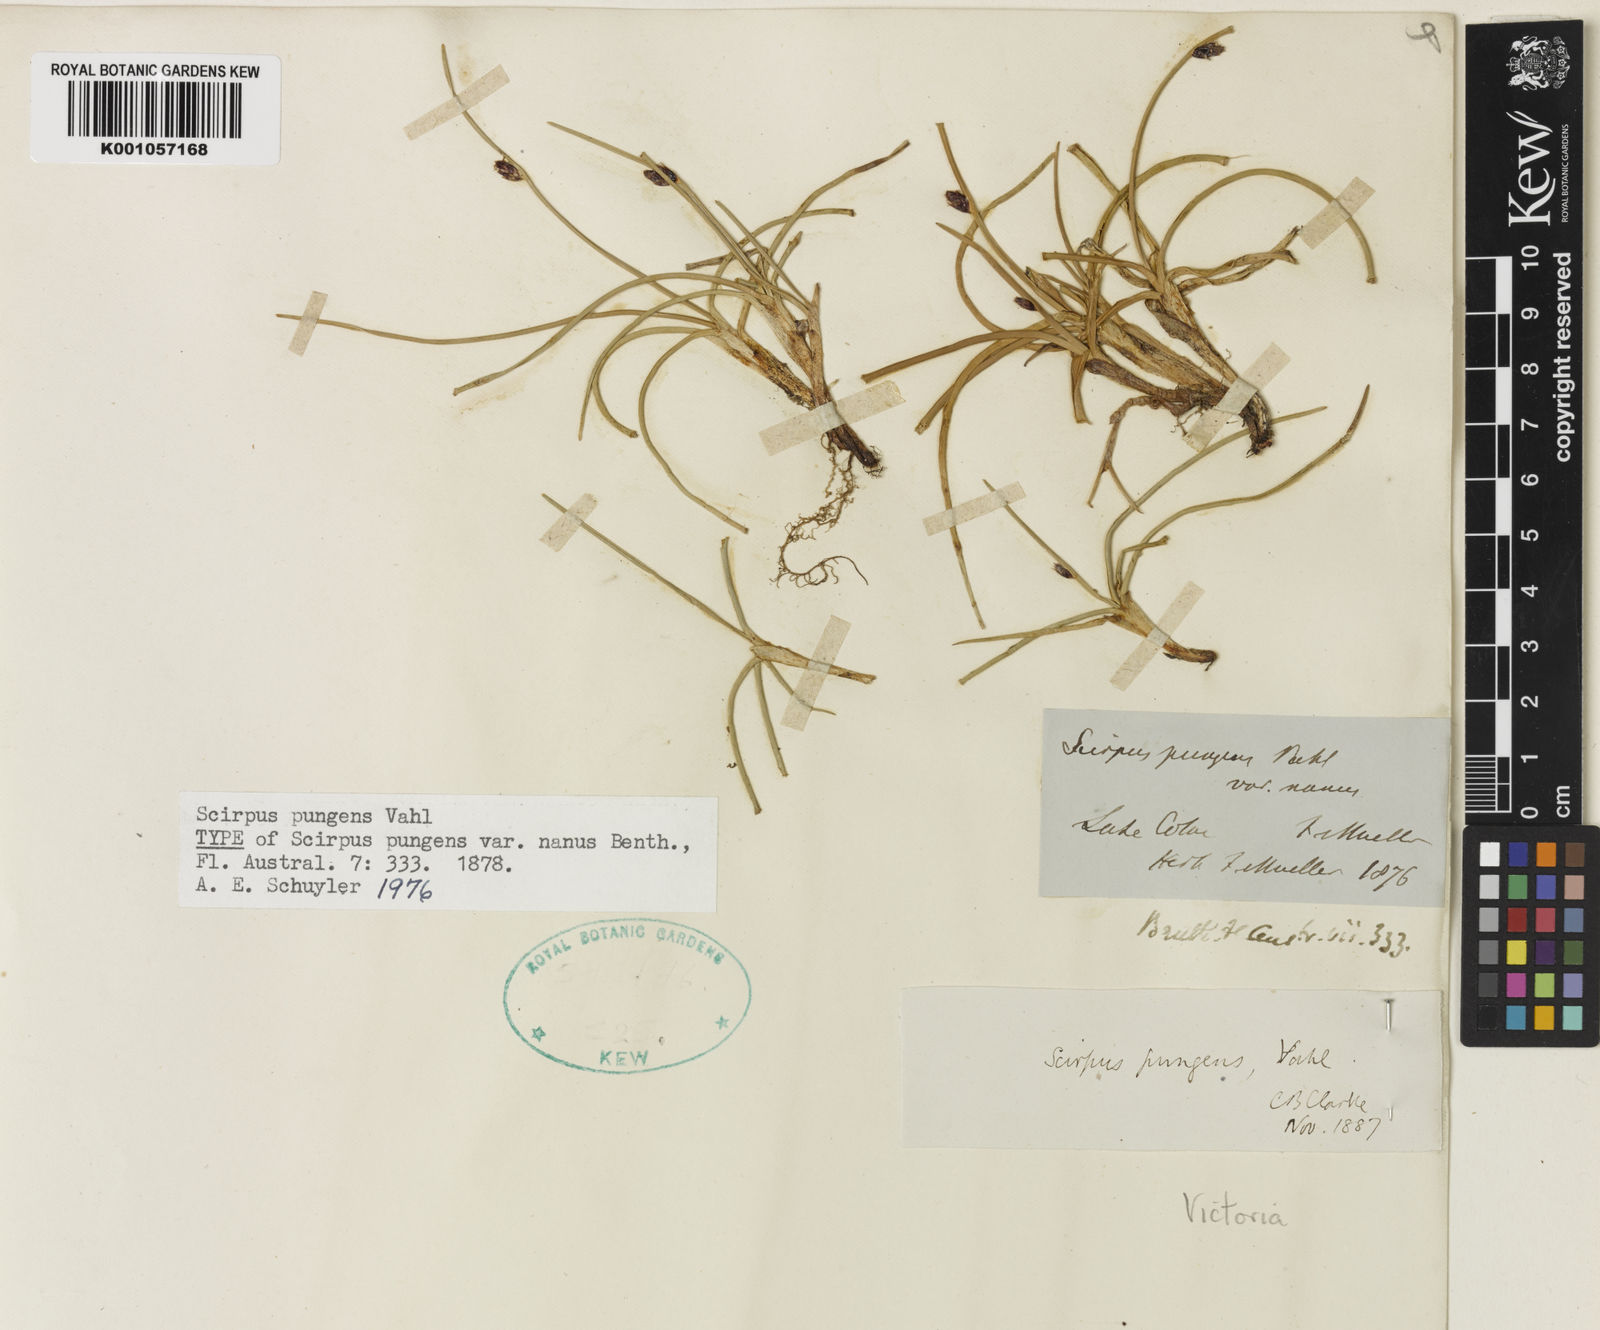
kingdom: Plantae
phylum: Tracheophyta
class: Liliopsida
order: Poales
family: Cyperaceae
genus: Schoenoplectus
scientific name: Schoenoplectus pungens
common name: Sharp club-rush
